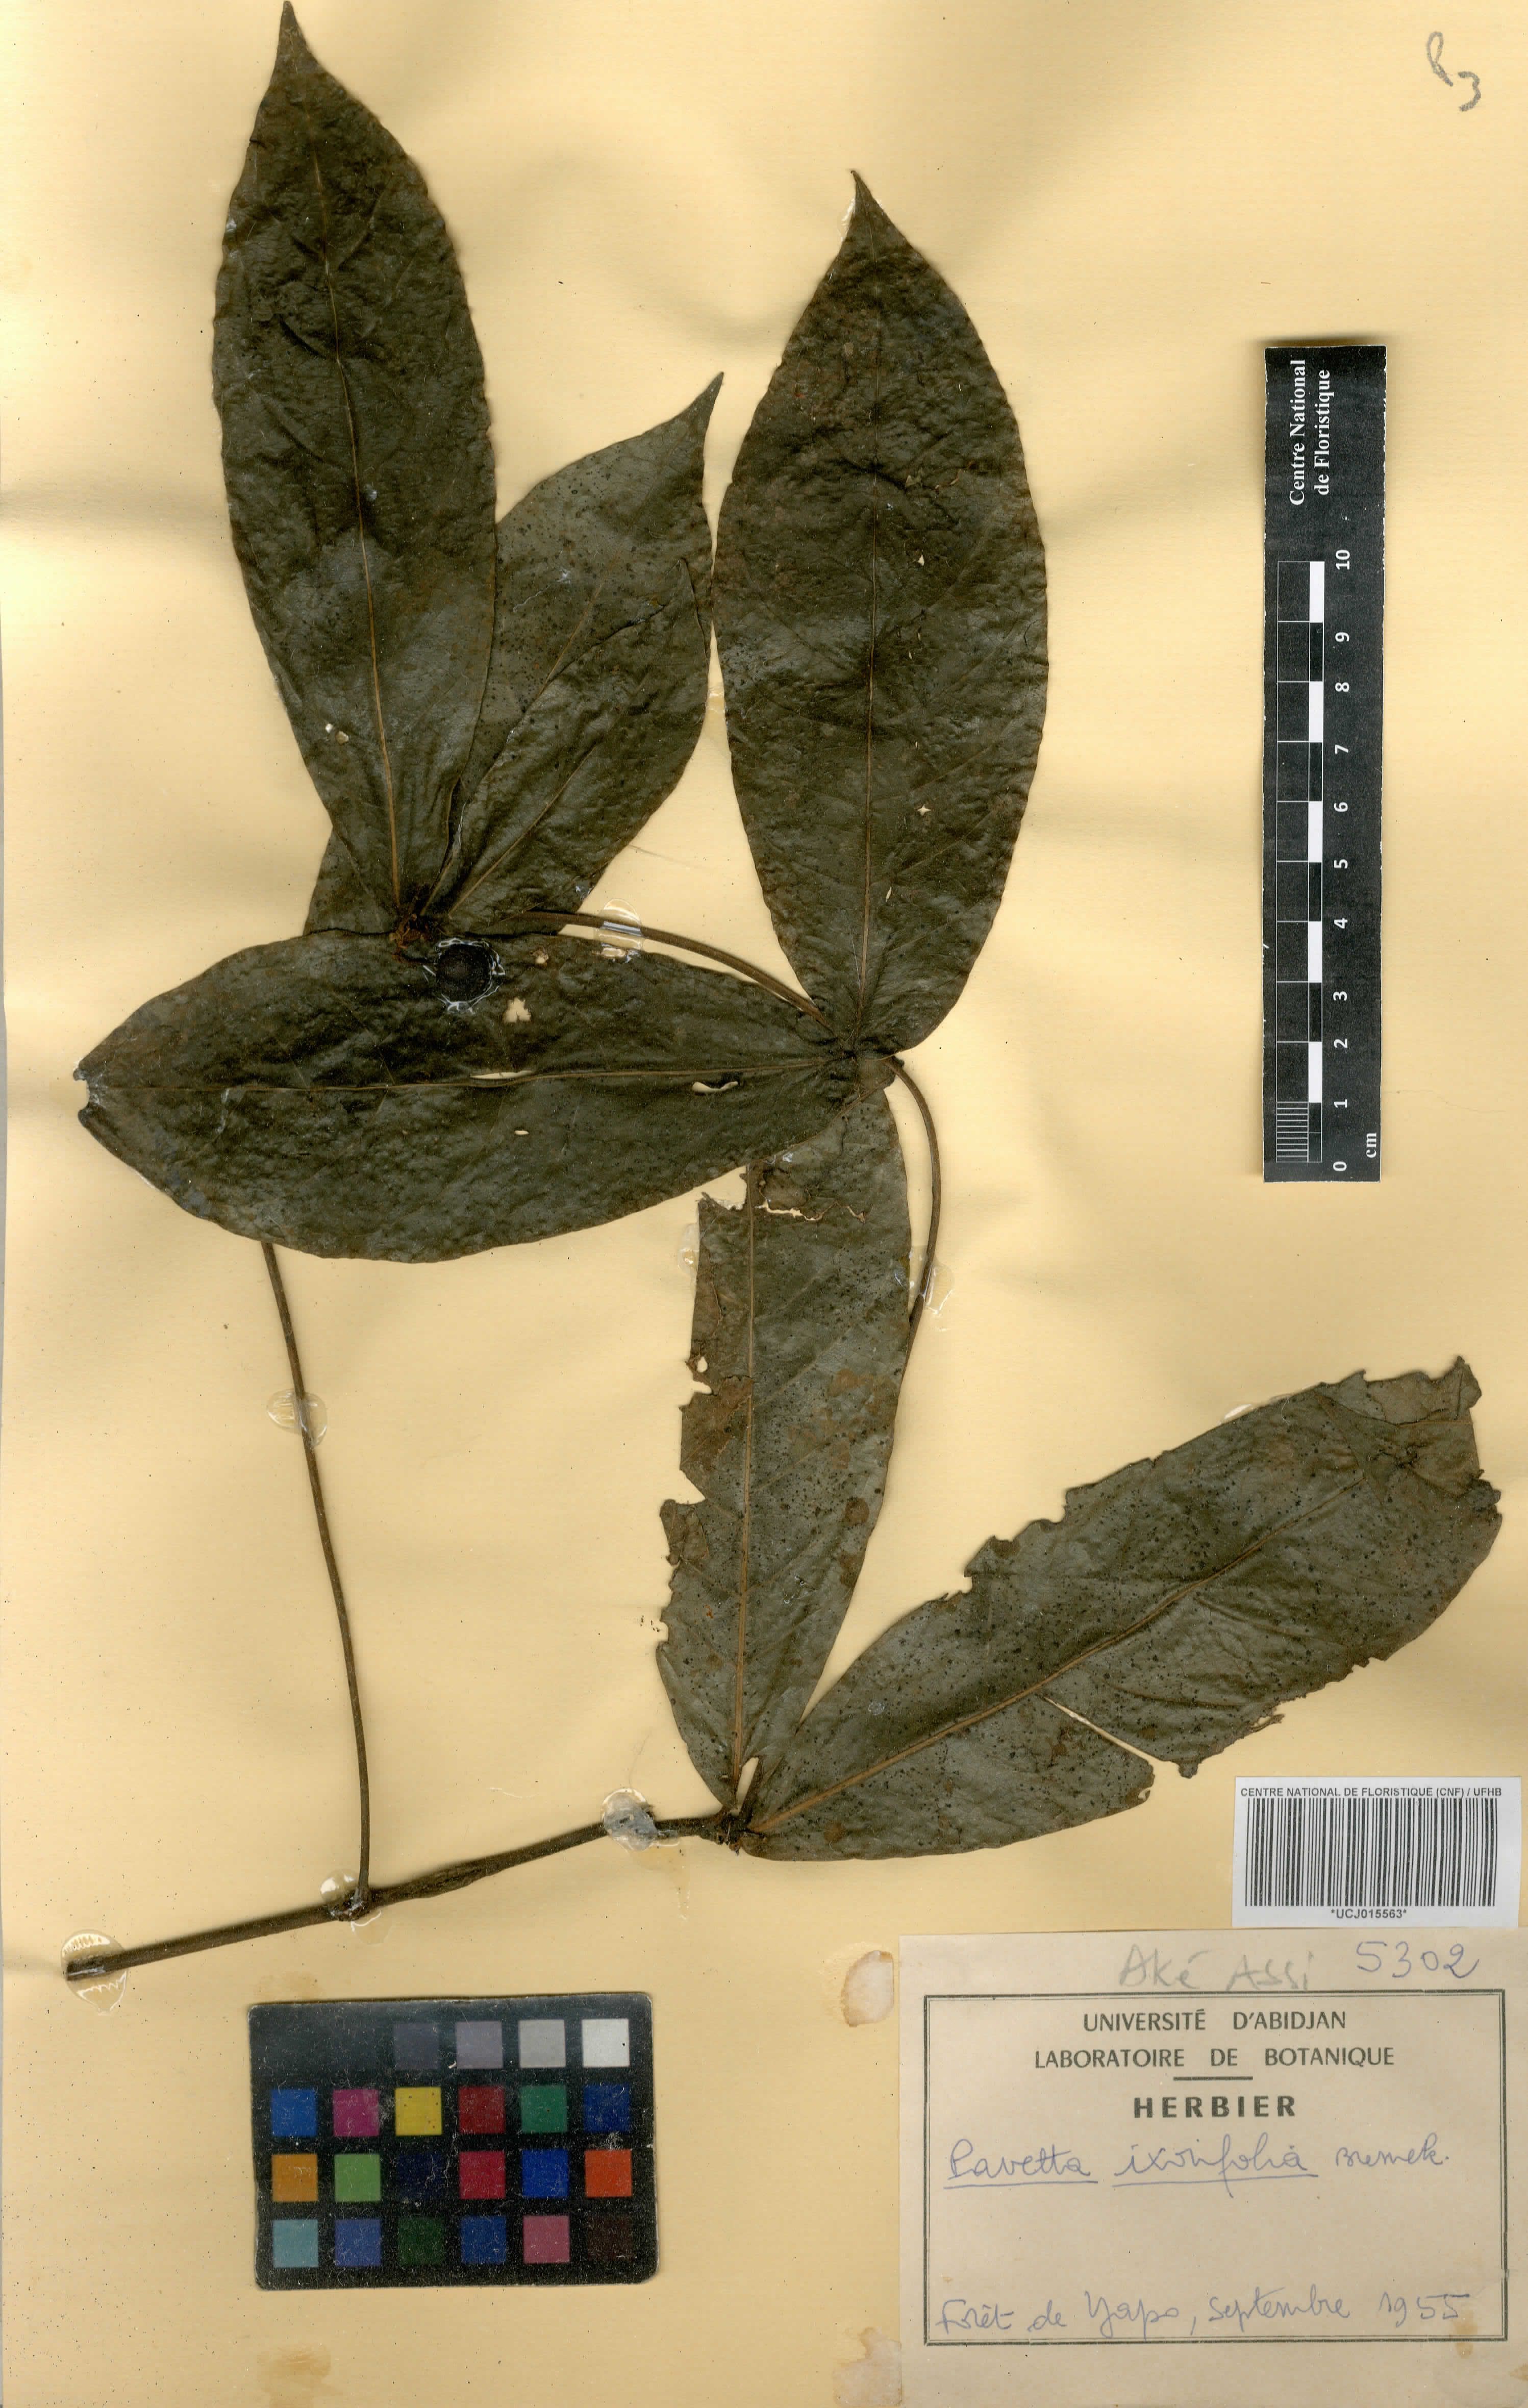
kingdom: Plantae
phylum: Tracheophyta
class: Magnoliopsida
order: Gentianales
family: Rubiaceae
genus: Pavetta
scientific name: Pavetta ixorifolia
